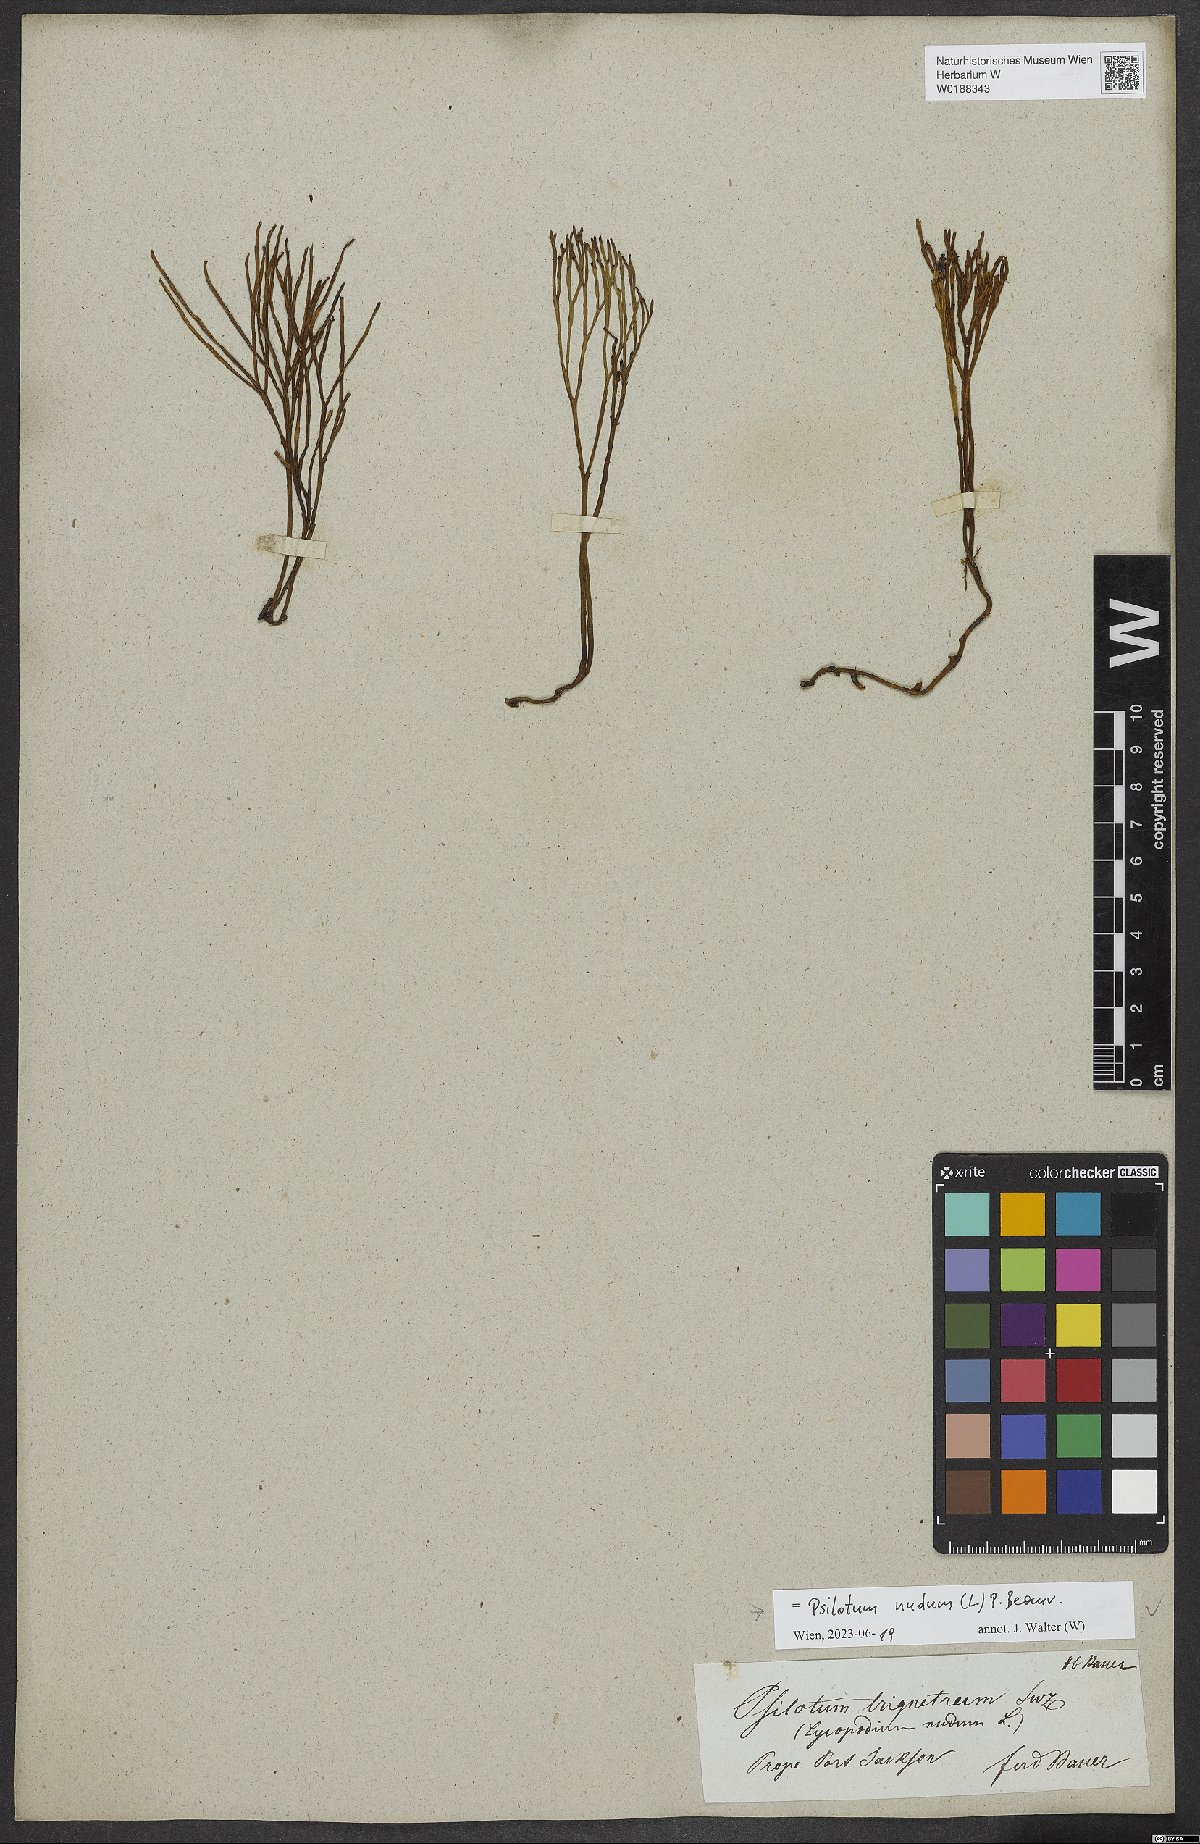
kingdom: Plantae
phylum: Tracheophyta
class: Polypodiopsida
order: Psilotales
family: Psilotaceae
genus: Psilotum
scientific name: Psilotum nudum
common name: Skeleton fork fern
